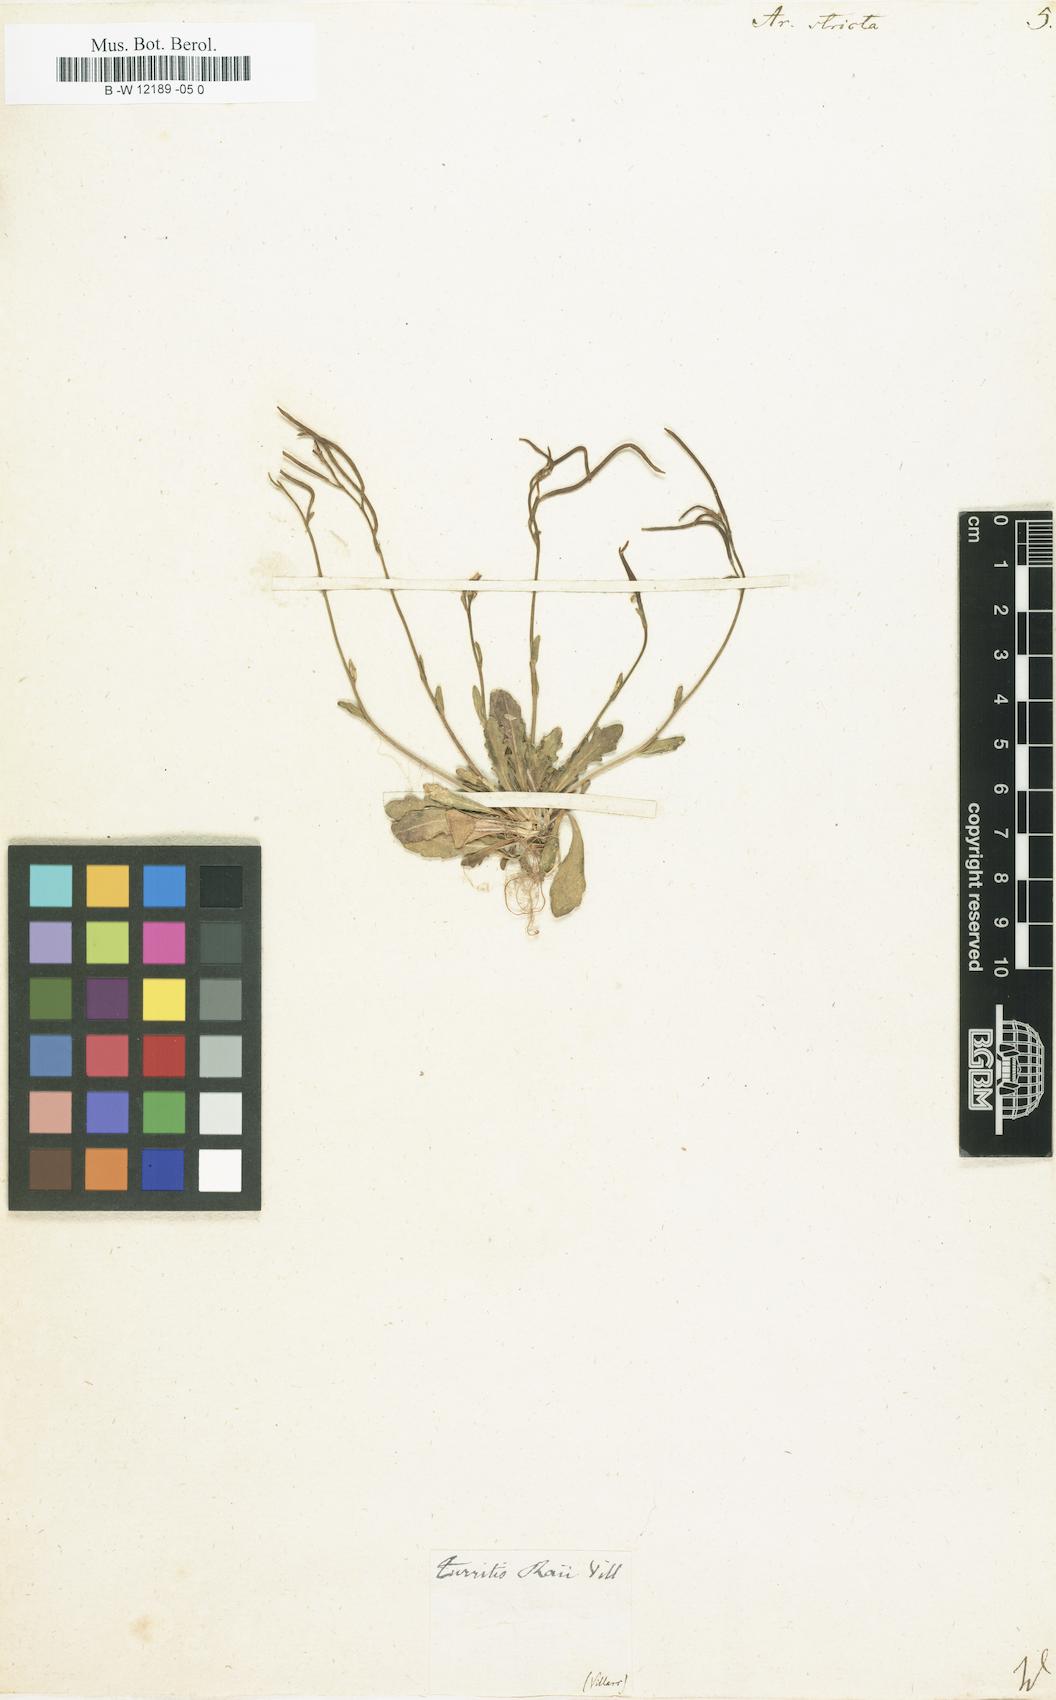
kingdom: Plantae
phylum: Tracheophyta
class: Magnoliopsida
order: Brassicales
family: Brassicaceae
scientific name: Brassicaceae
